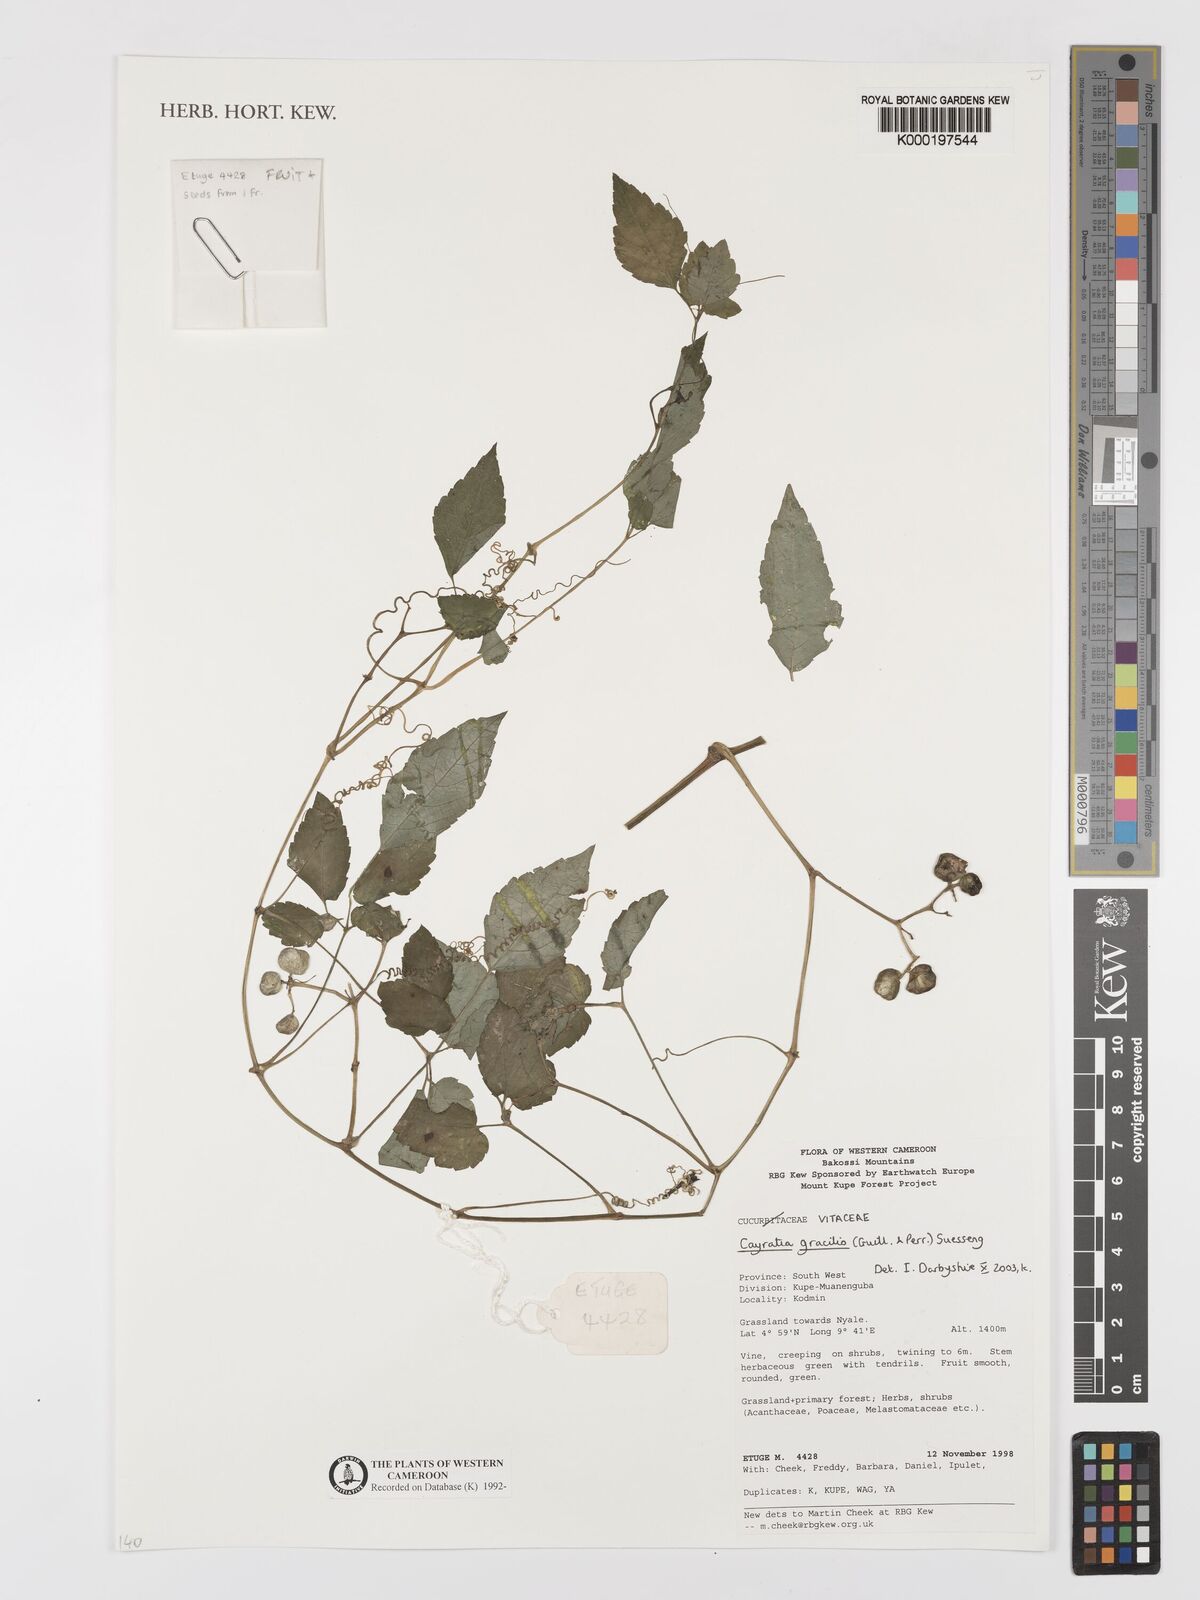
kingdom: Plantae
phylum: Tracheophyta
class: Magnoliopsida
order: Vitales
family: Vitaceae
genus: Afrocayratia
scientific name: Afrocayratia gracilis
